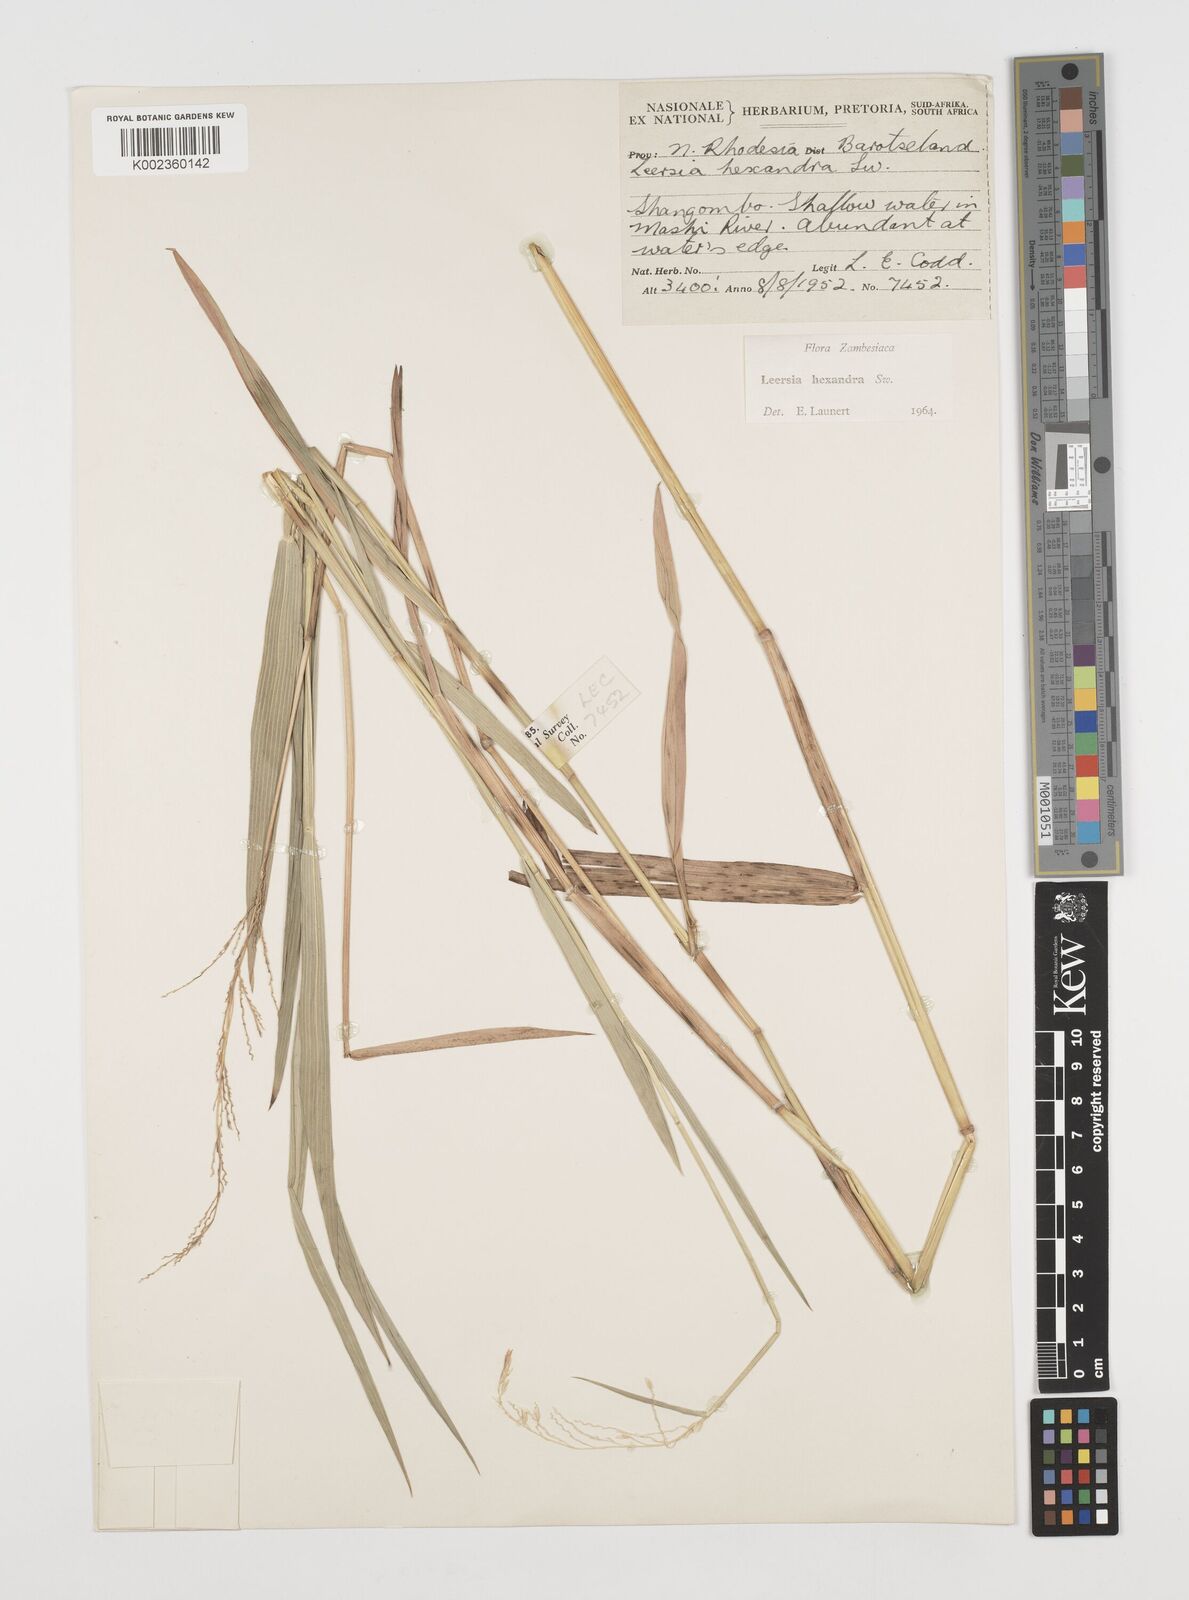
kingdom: Plantae
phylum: Tracheophyta
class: Liliopsida
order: Poales
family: Poaceae
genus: Leersia
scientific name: Leersia hexandra
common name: Southern cut grass
